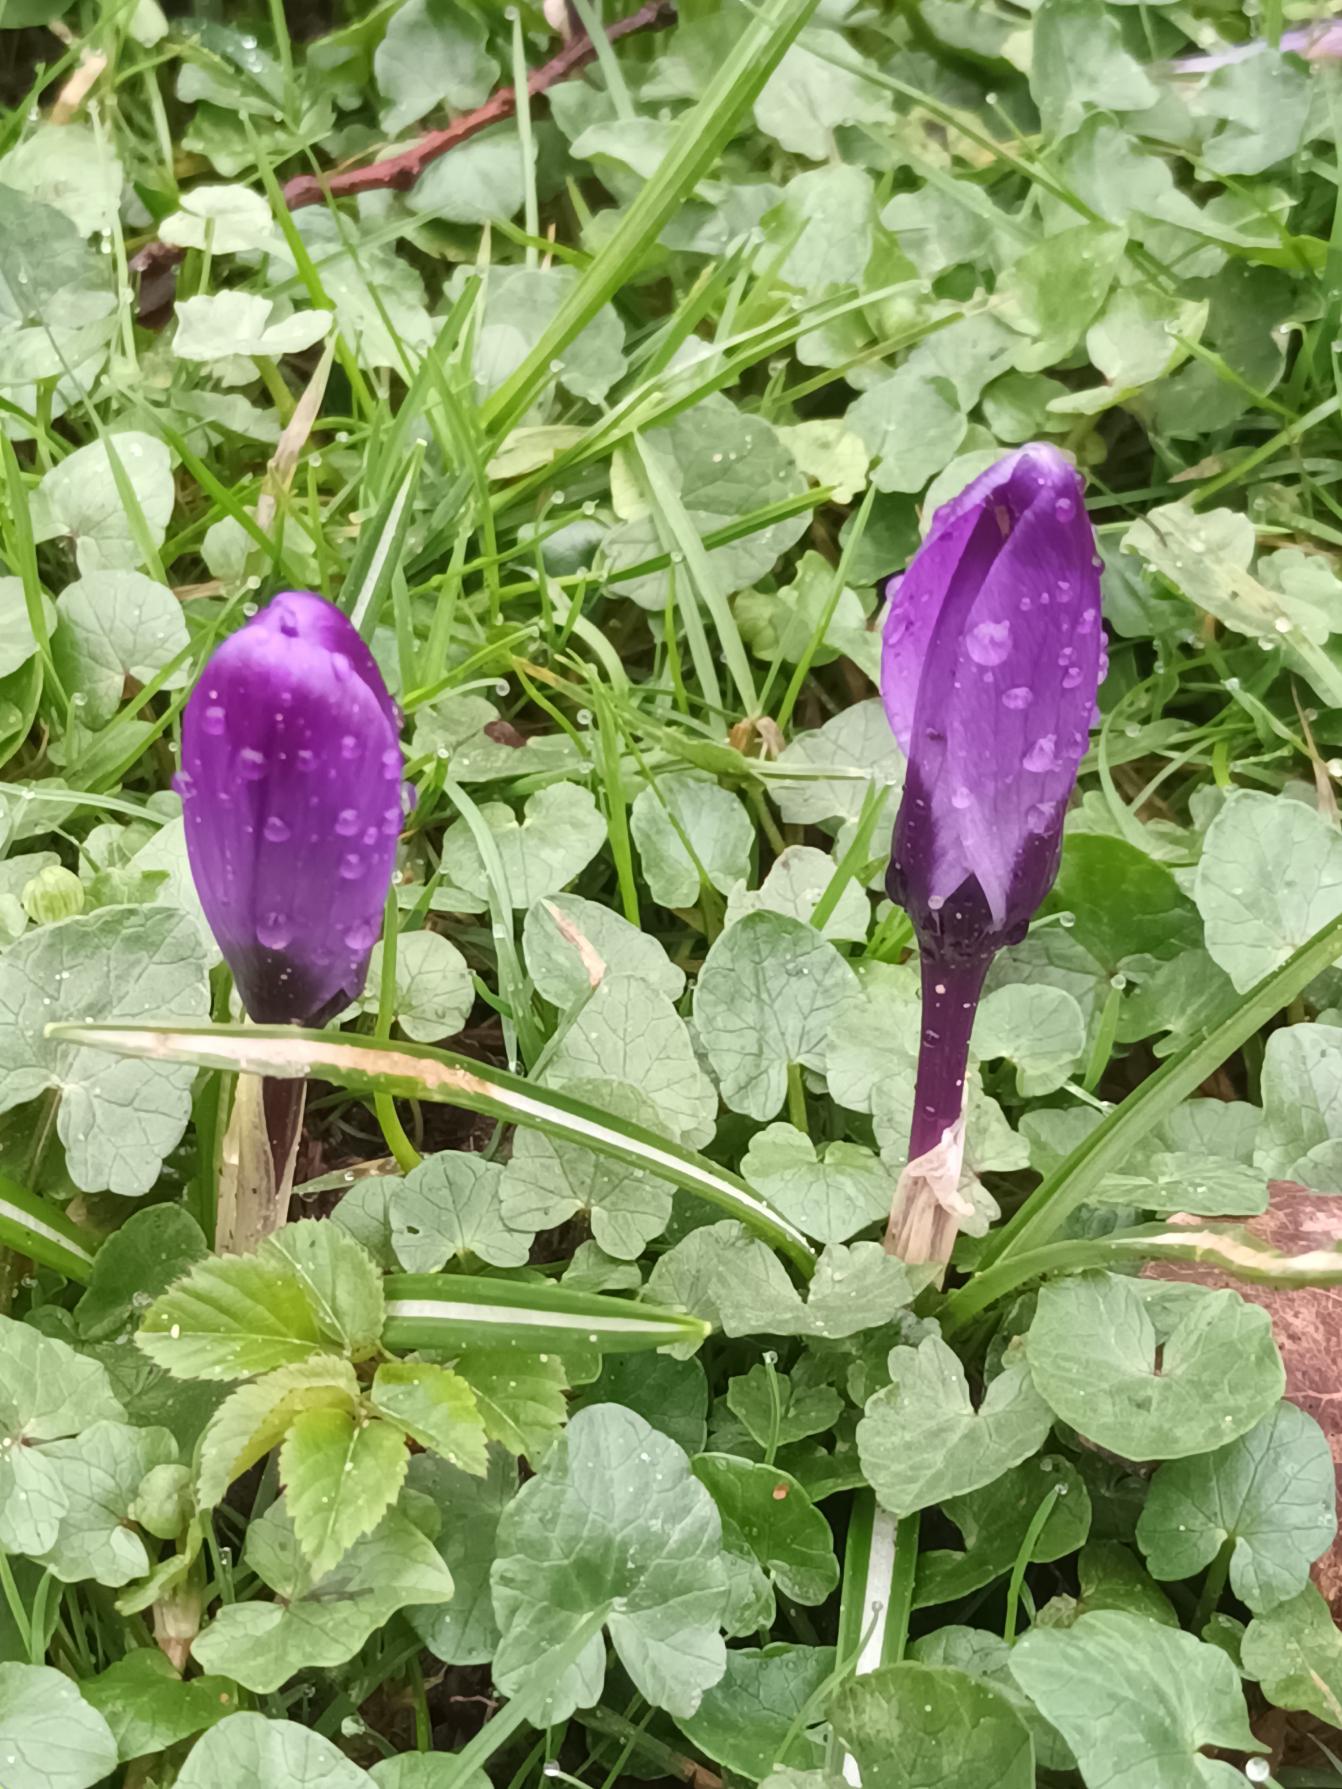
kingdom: Plantae
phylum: Tracheophyta
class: Liliopsida
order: Asparagales
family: Iridaceae
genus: Crocus
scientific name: Crocus vernus
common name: Vår-krokus
